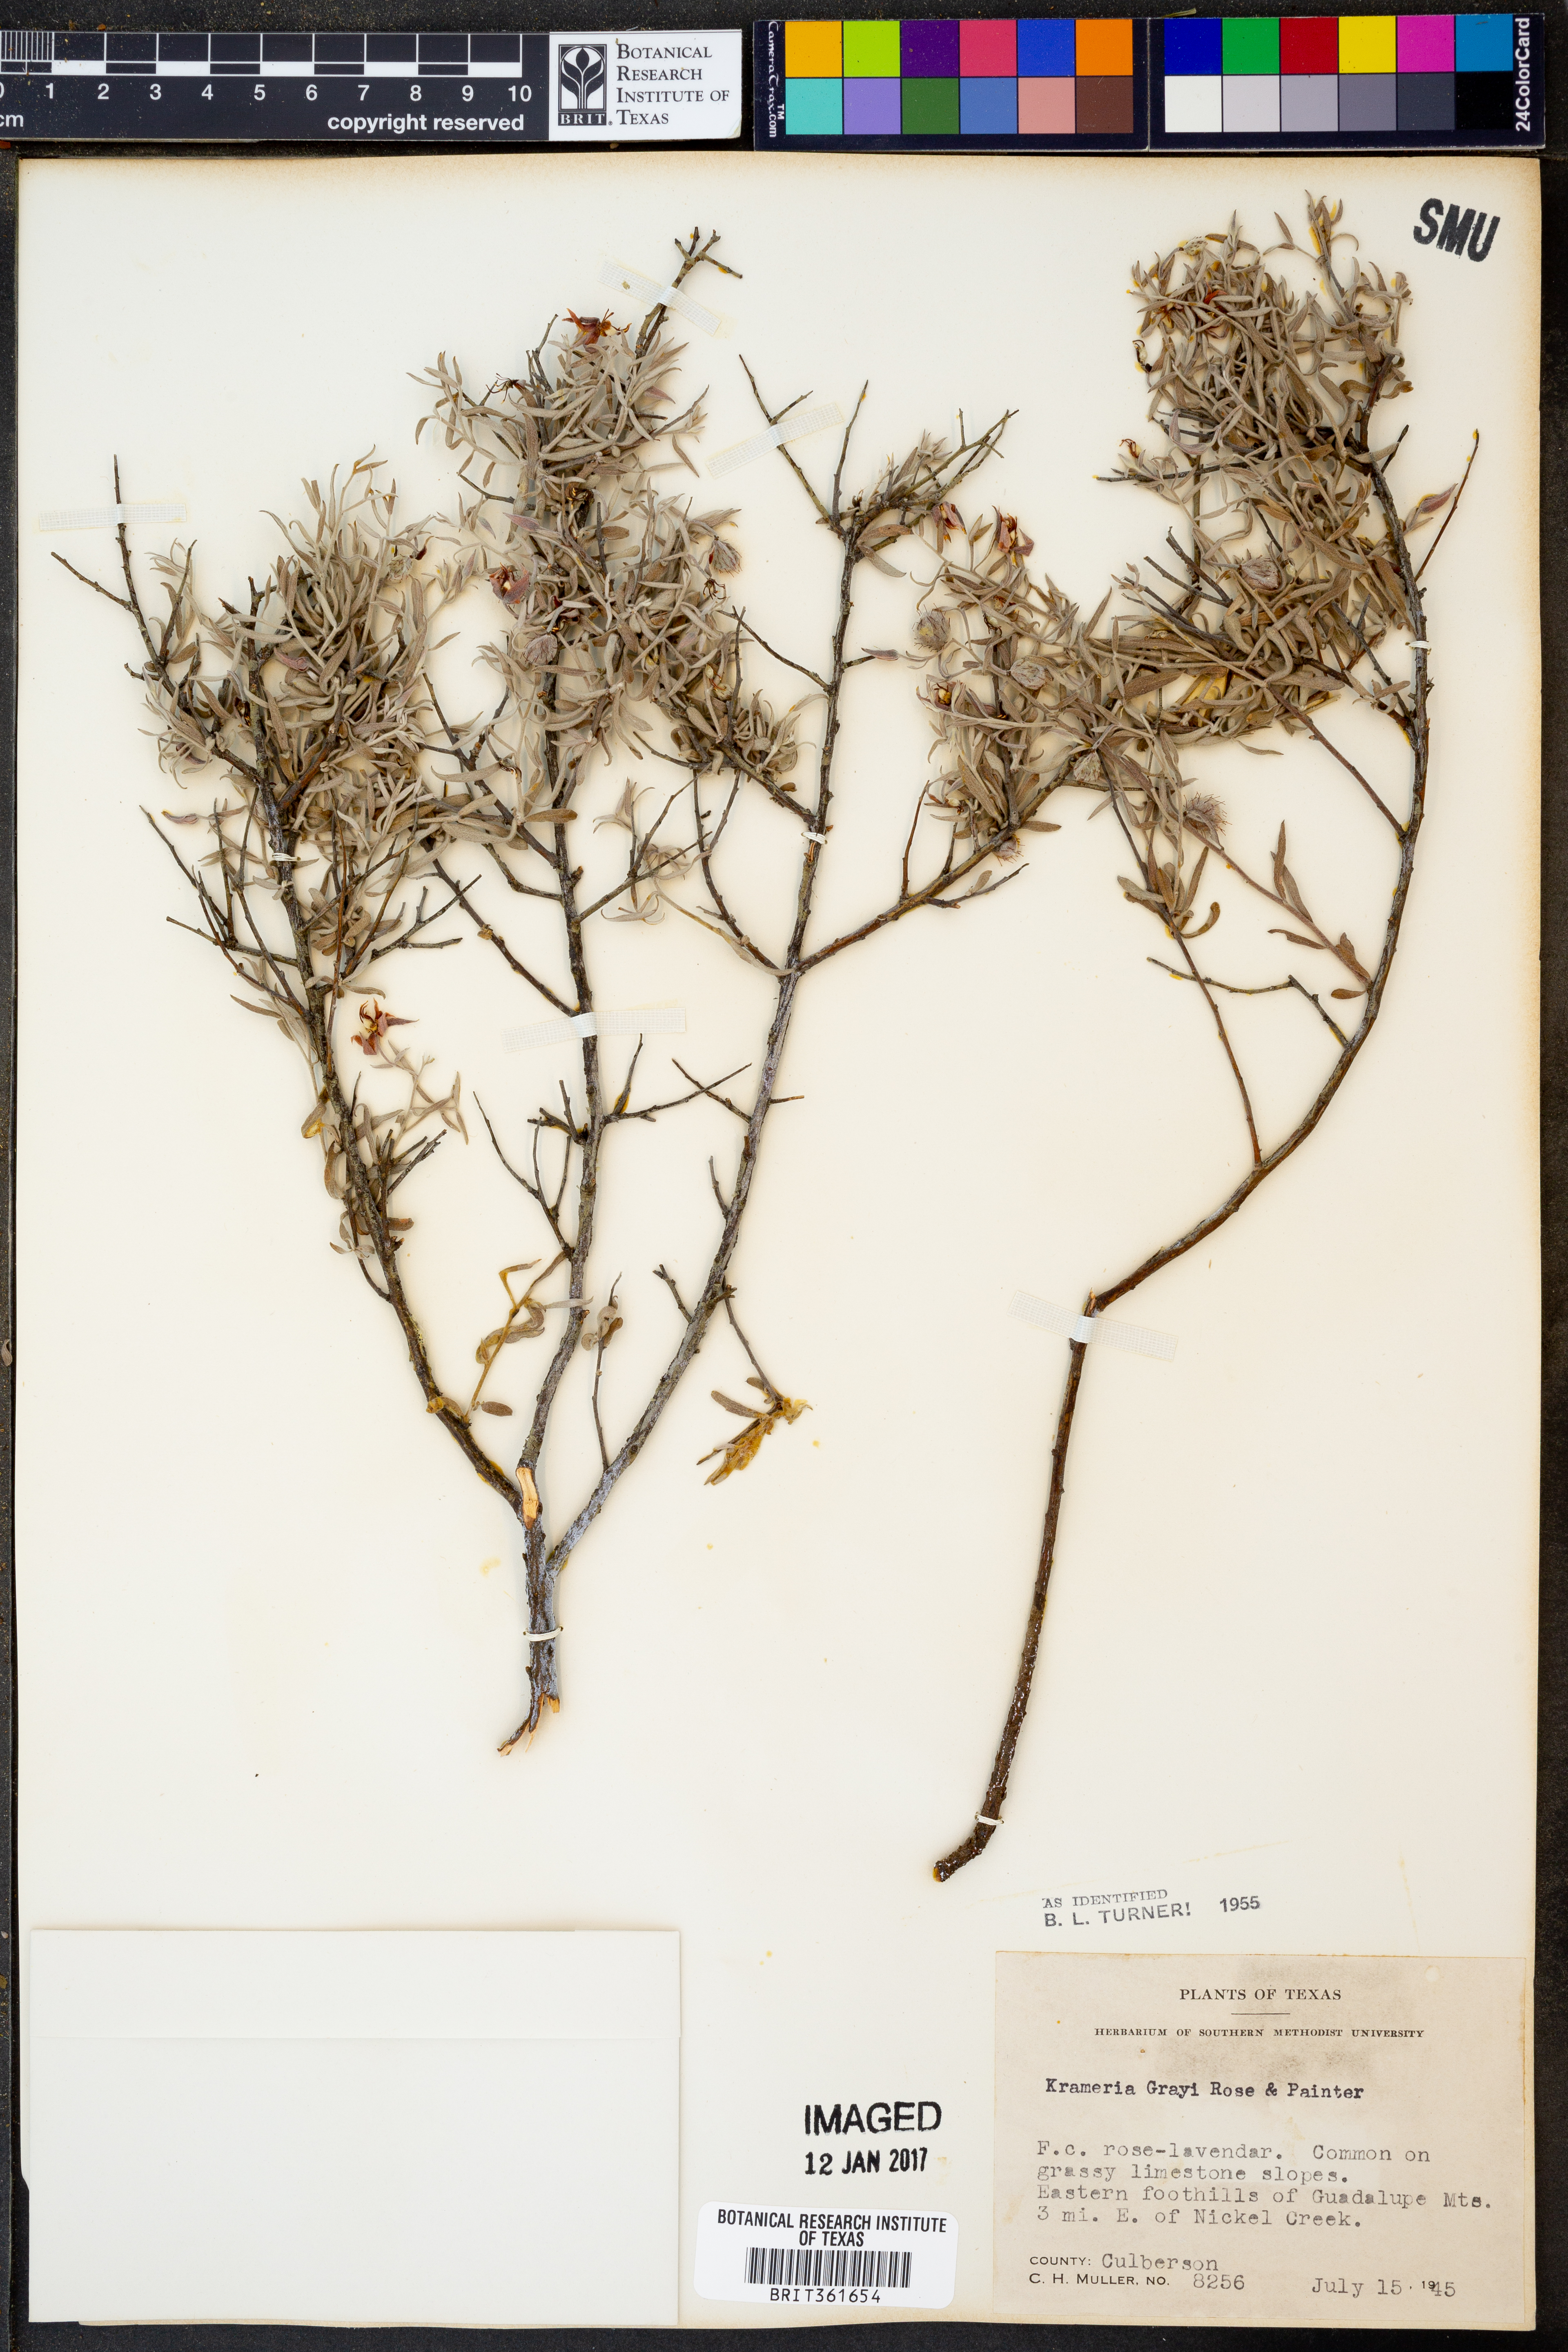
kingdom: Plantae
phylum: Tracheophyta
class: Magnoliopsida
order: Zygophyllales
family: Krameriaceae
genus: Krameria
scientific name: Krameria bicolor
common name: White ratany
